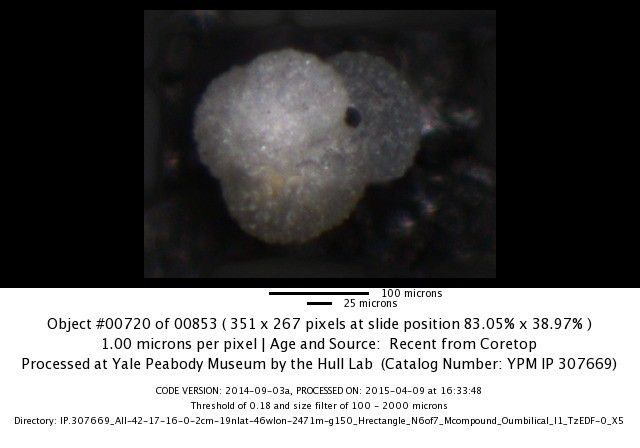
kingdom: Chromista
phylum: Foraminifera
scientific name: Foraminifera
